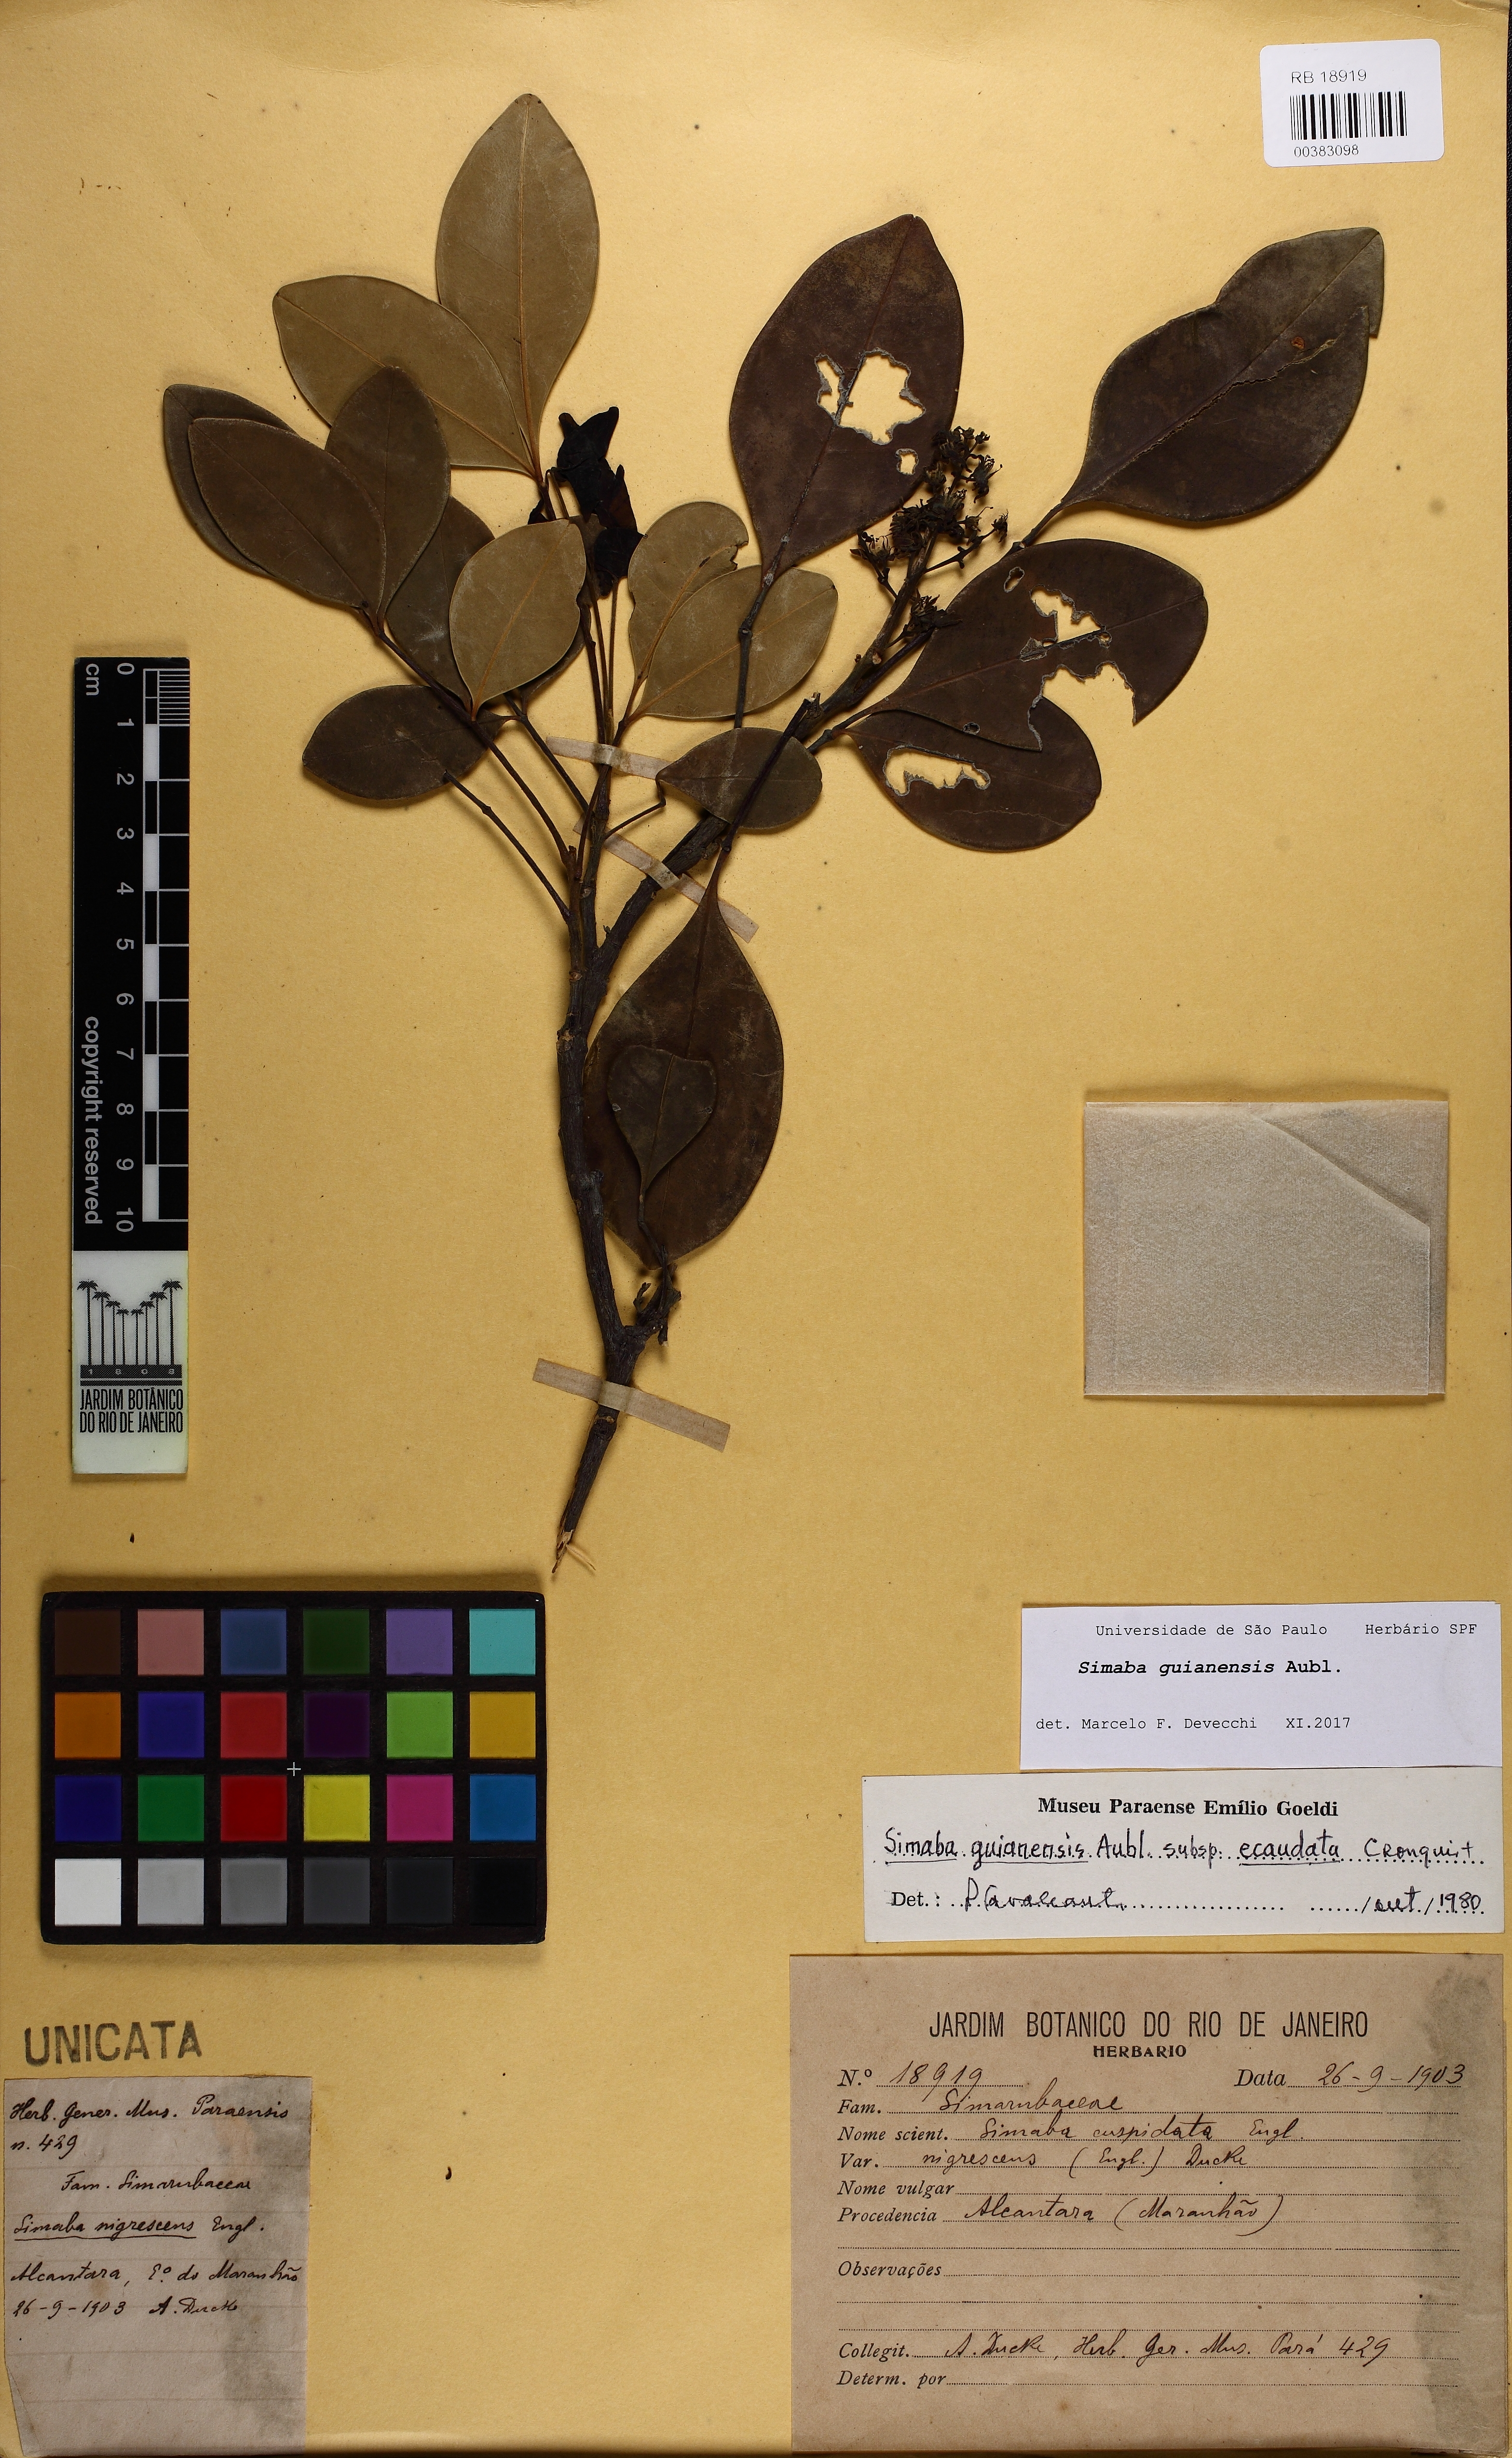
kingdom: Plantae
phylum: Tracheophyta
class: Magnoliopsida
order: Sapindales
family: Simaroubaceae
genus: Simaba
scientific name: Simaba guianensis
